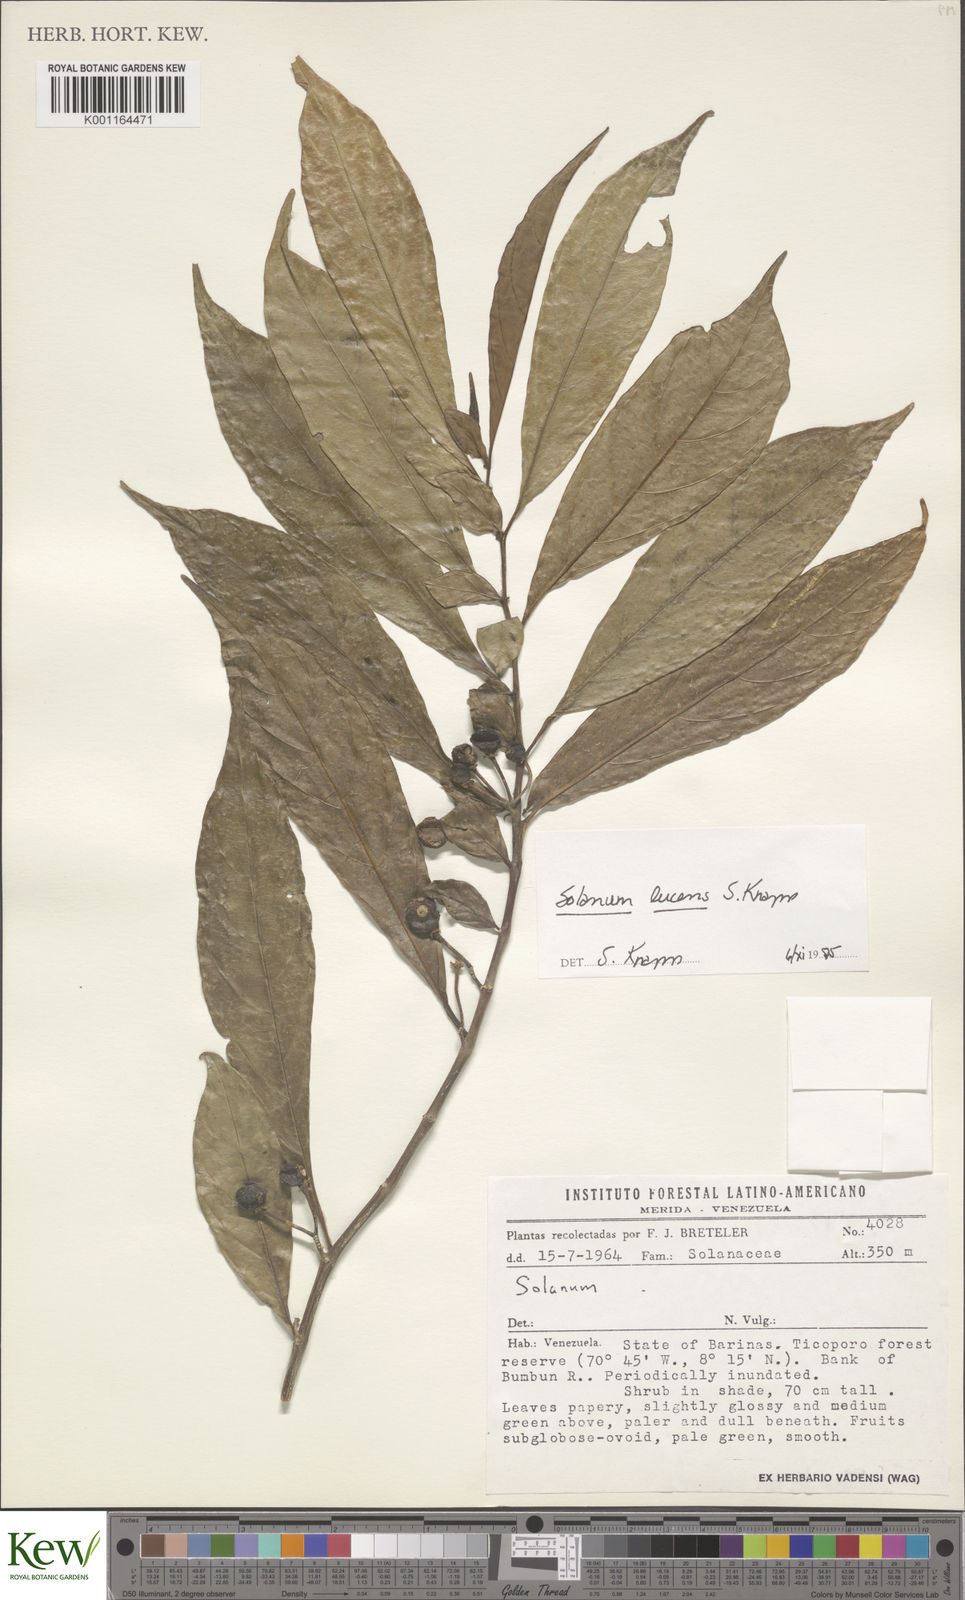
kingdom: Plantae
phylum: Tracheophyta
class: Magnoliopsida
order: Solanales
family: Solanaceae
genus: Solanum
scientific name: Solanum lucens
